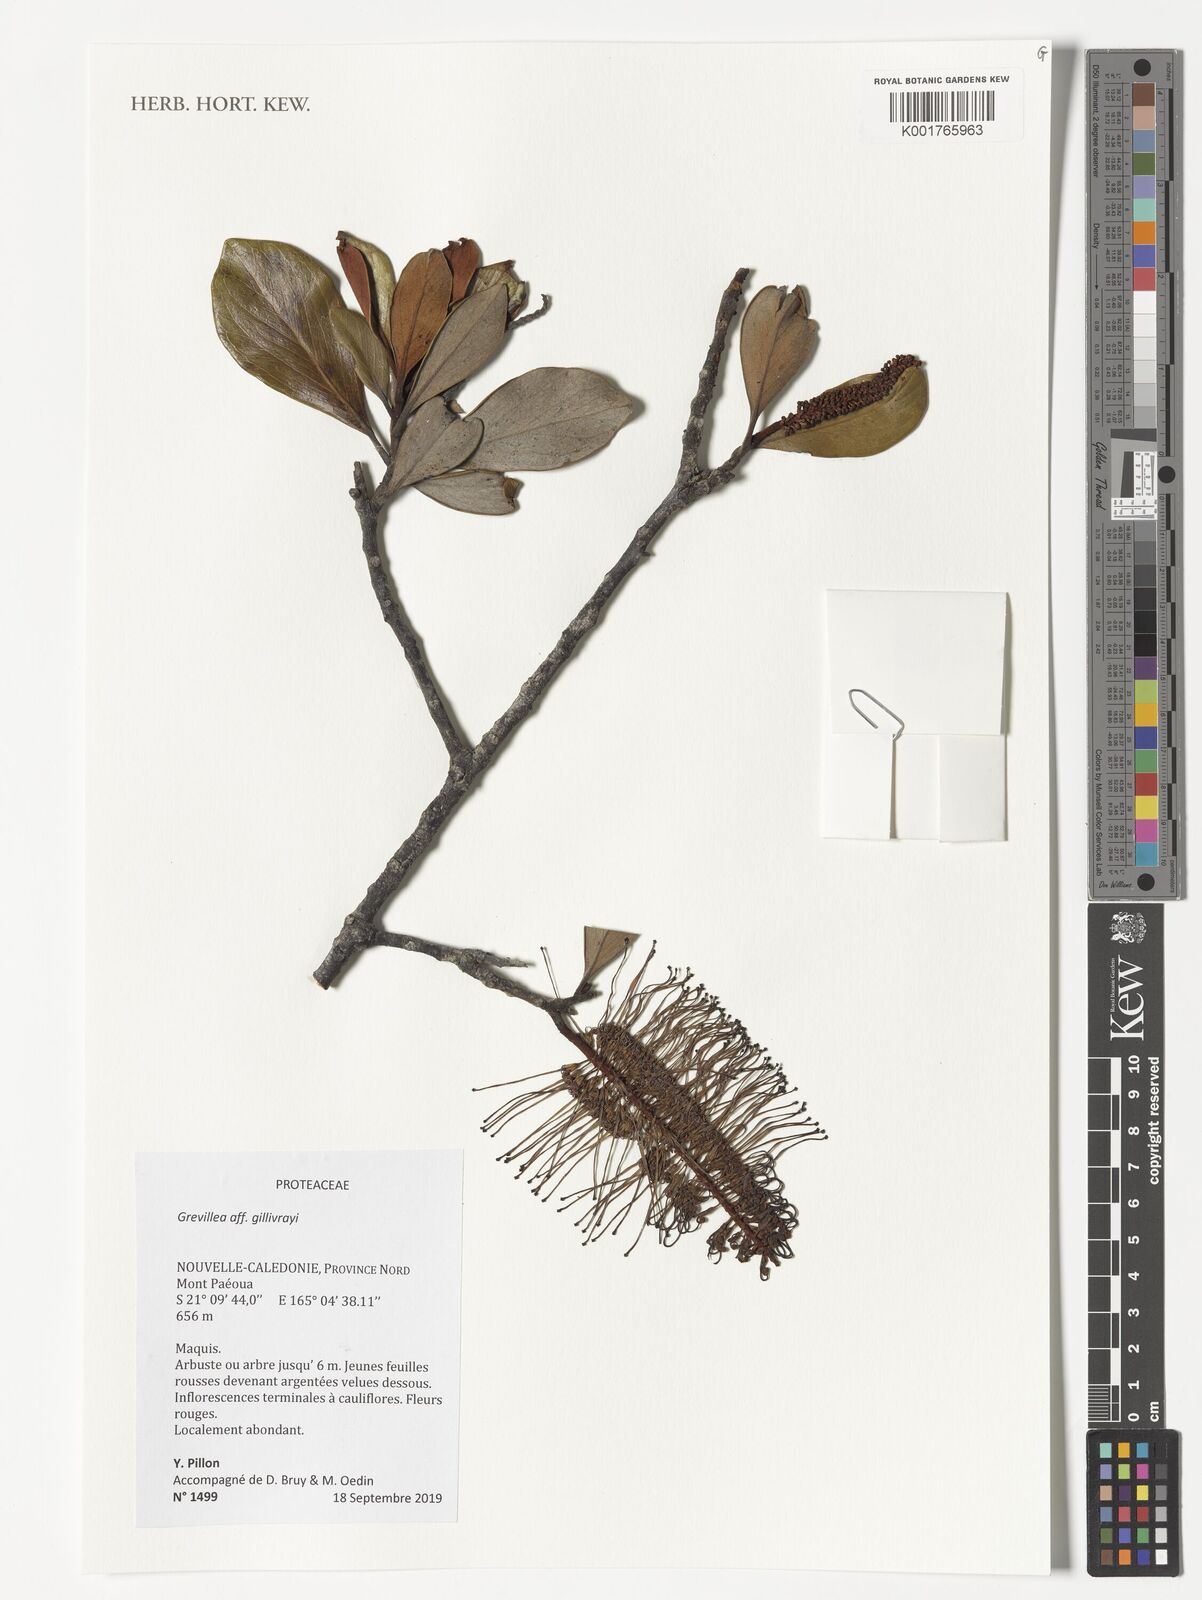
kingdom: Plantae
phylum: Tracheophyta
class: Magnoliopsida
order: Proteales
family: Proteaceae
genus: Grevillea
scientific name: Grevillea gillivrayi
